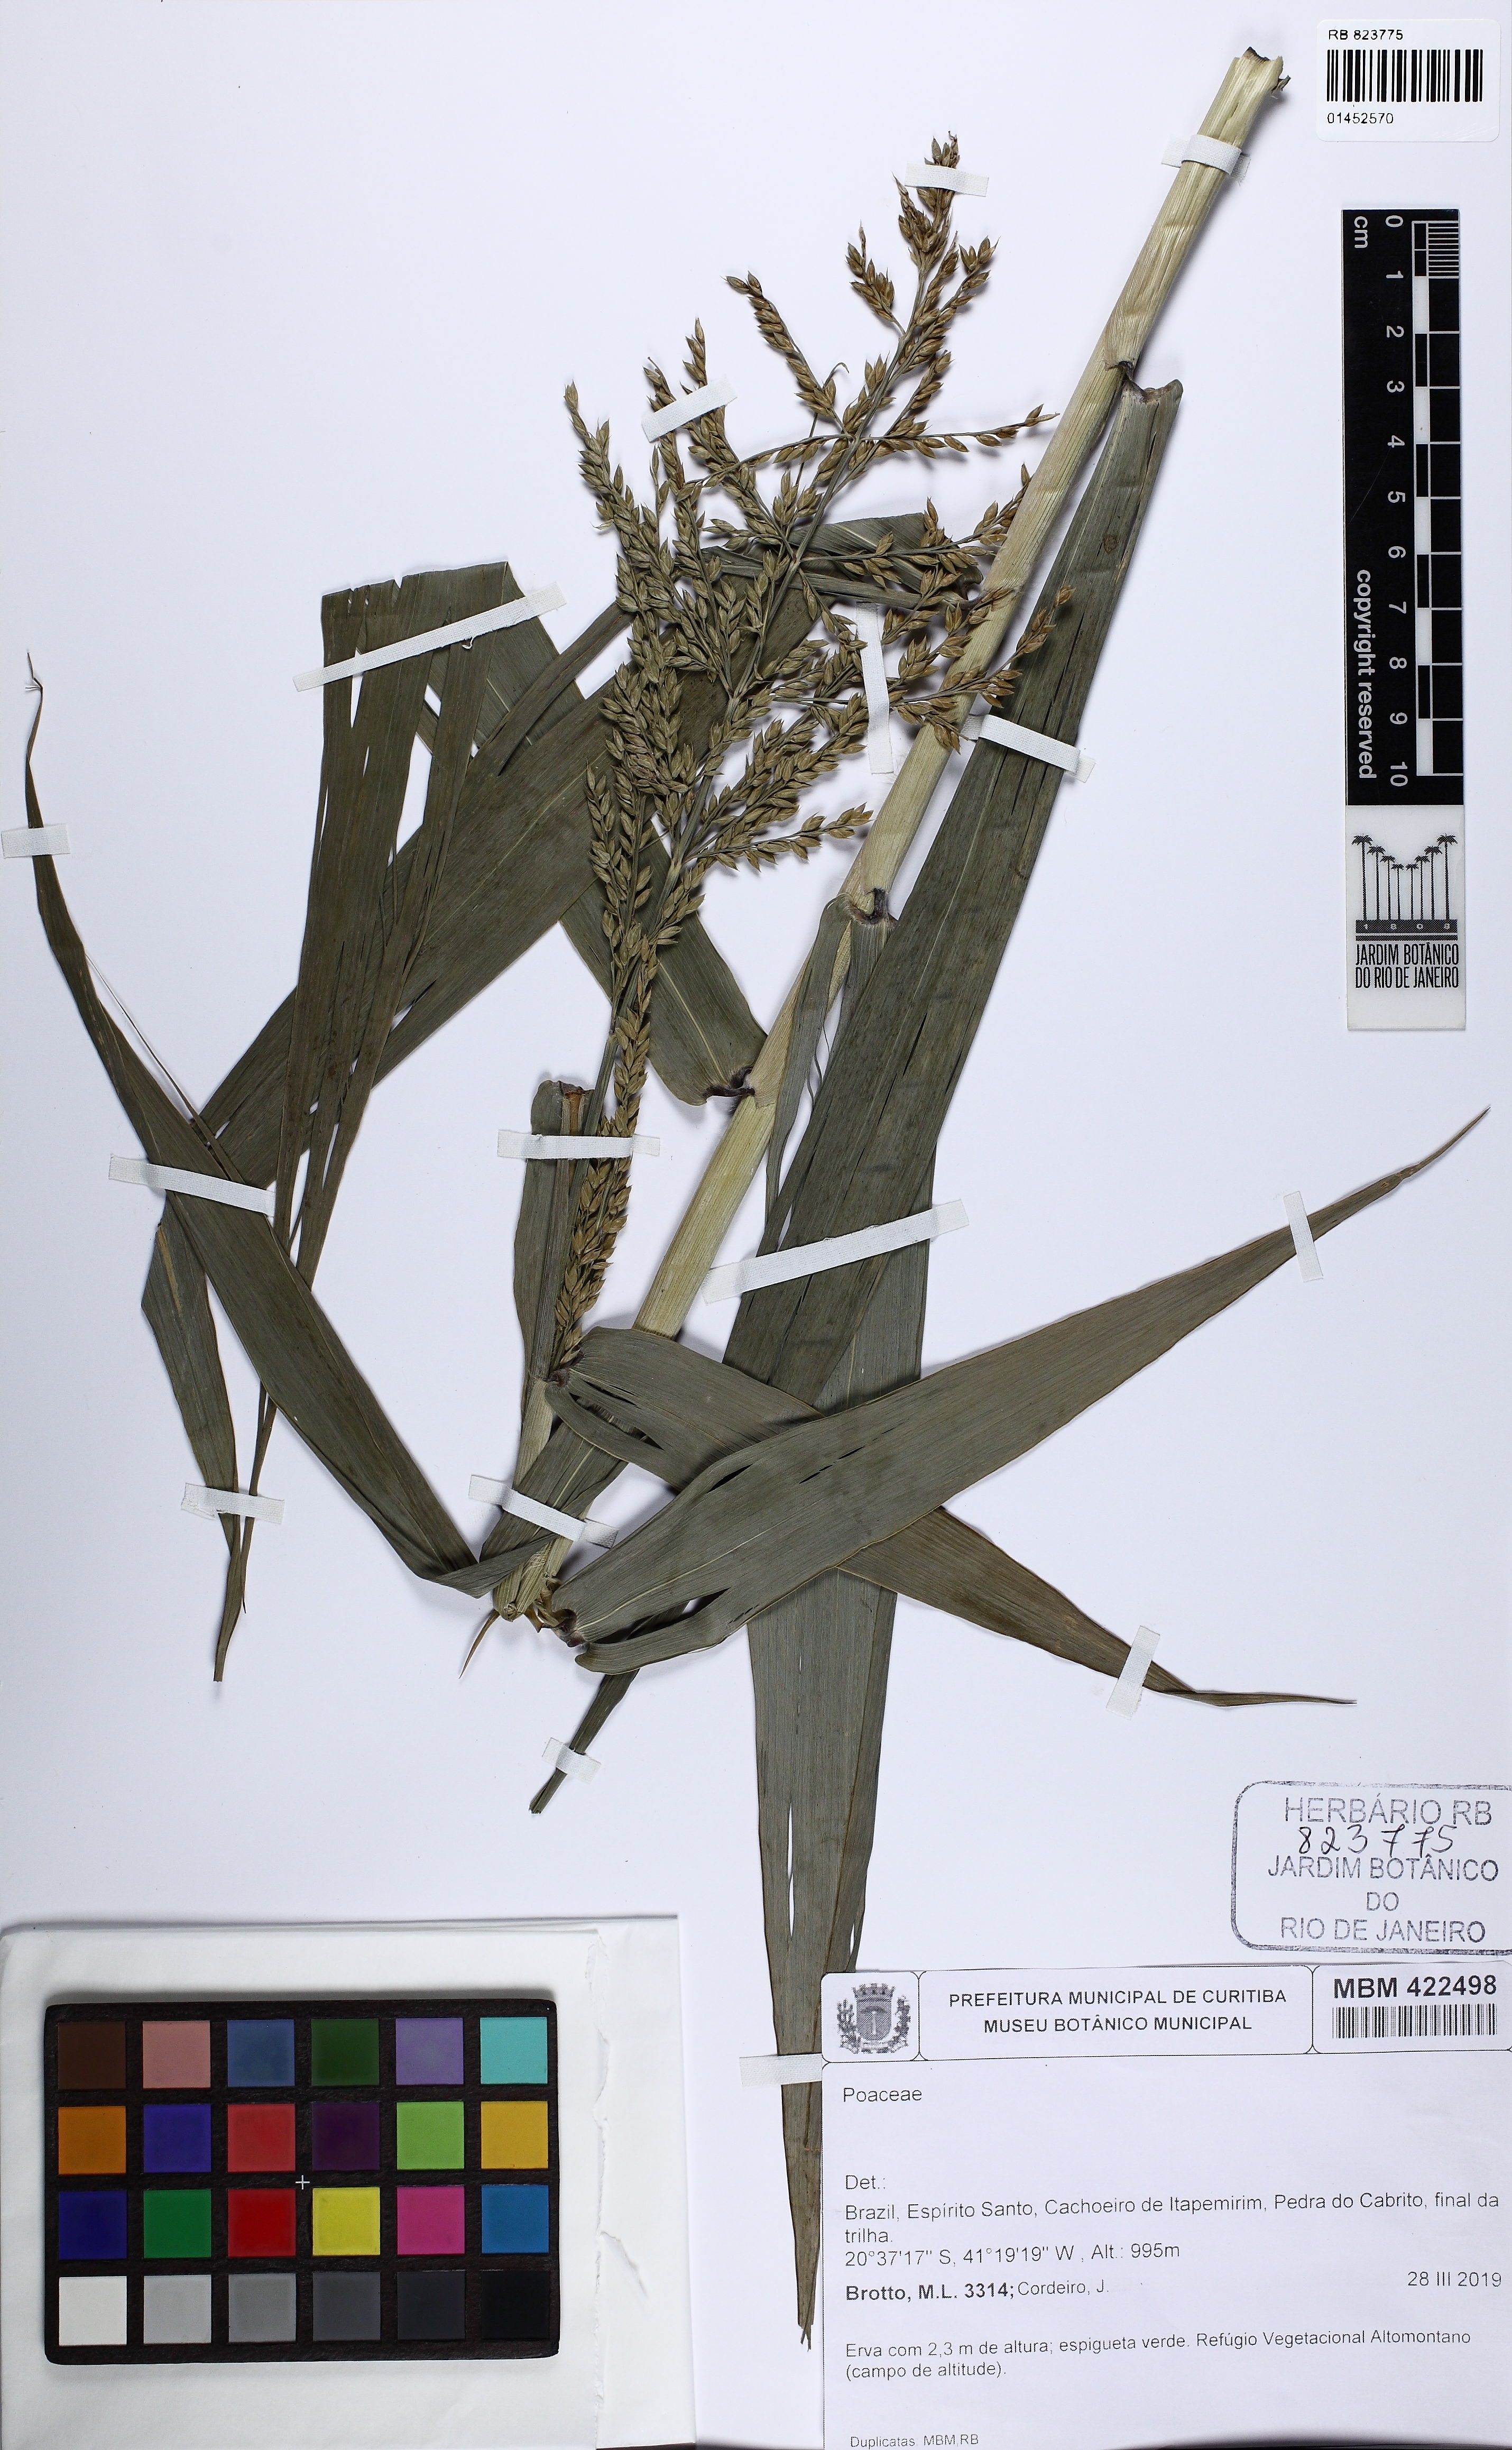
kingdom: Plantae
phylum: Tracheophyta
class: Liliopsida
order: Poales
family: Poaceae
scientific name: Poaceae
